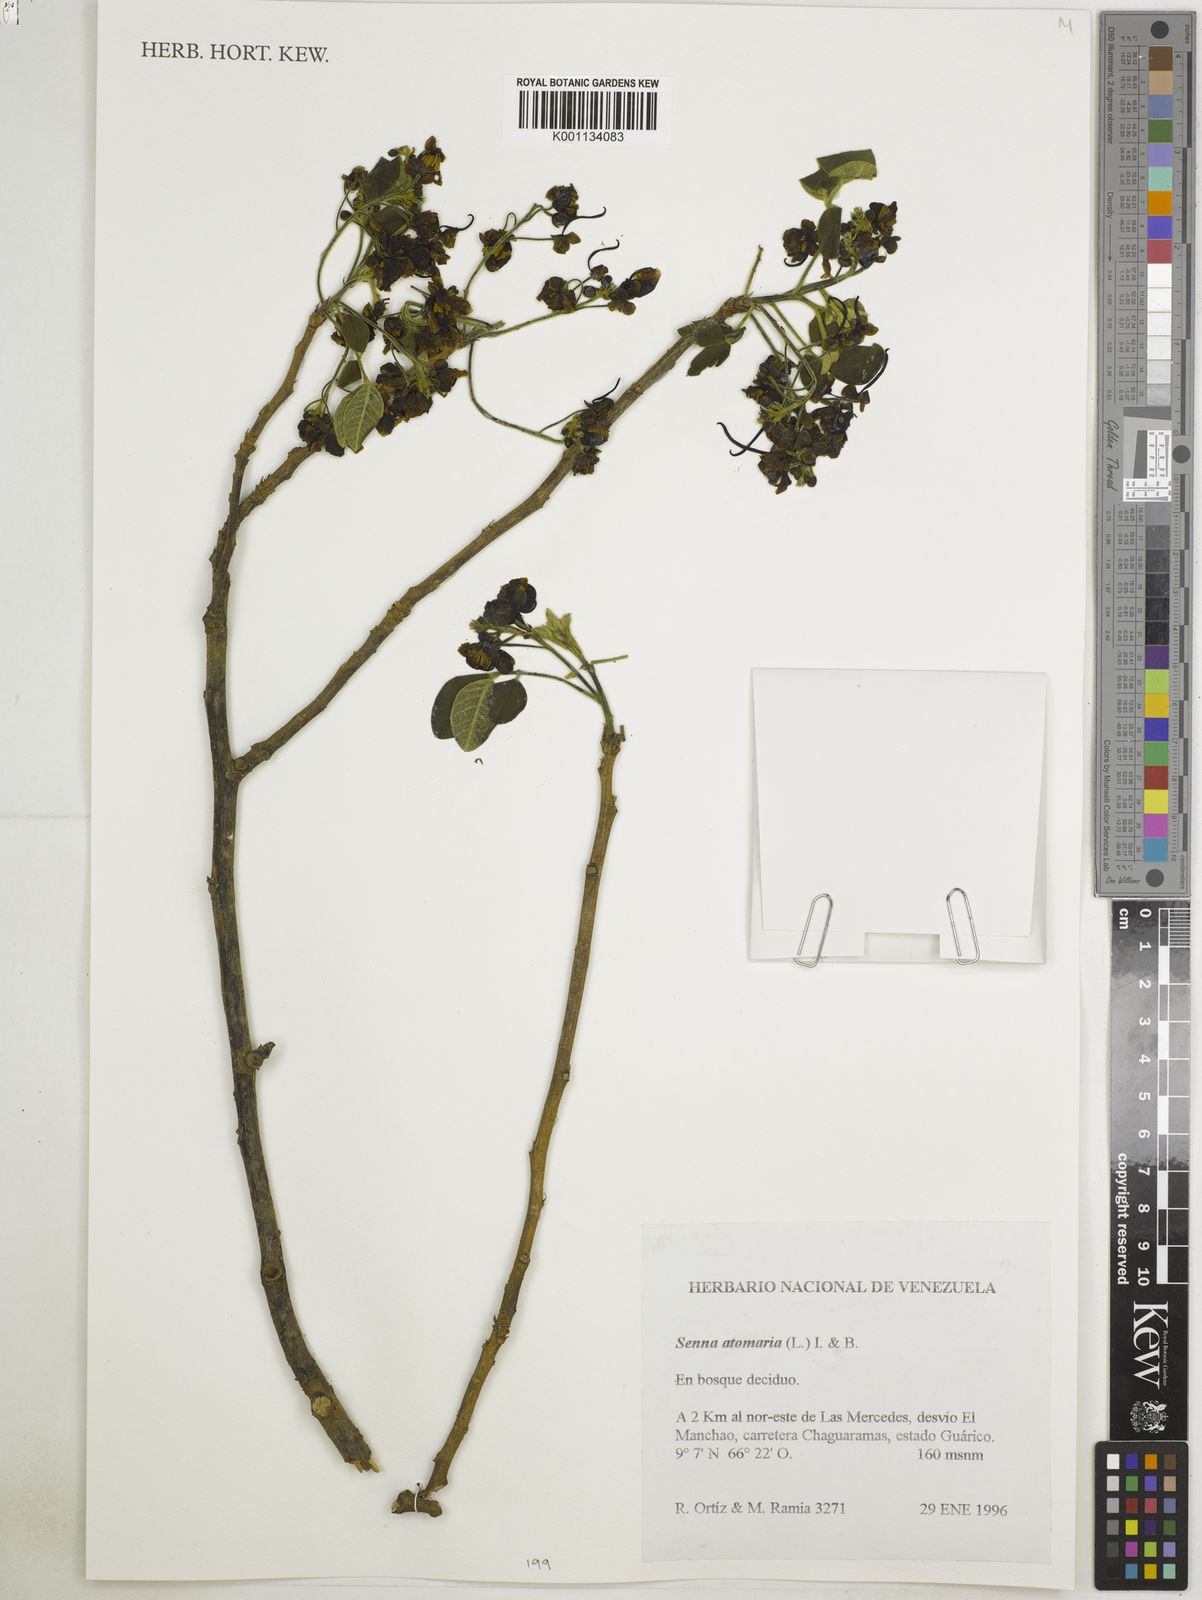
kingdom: Plantae
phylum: Tracheophyta
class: Magnoliopsida
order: Fabales
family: Fabaceae
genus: Senna
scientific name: Senna atomaria
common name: Flor de san jose
